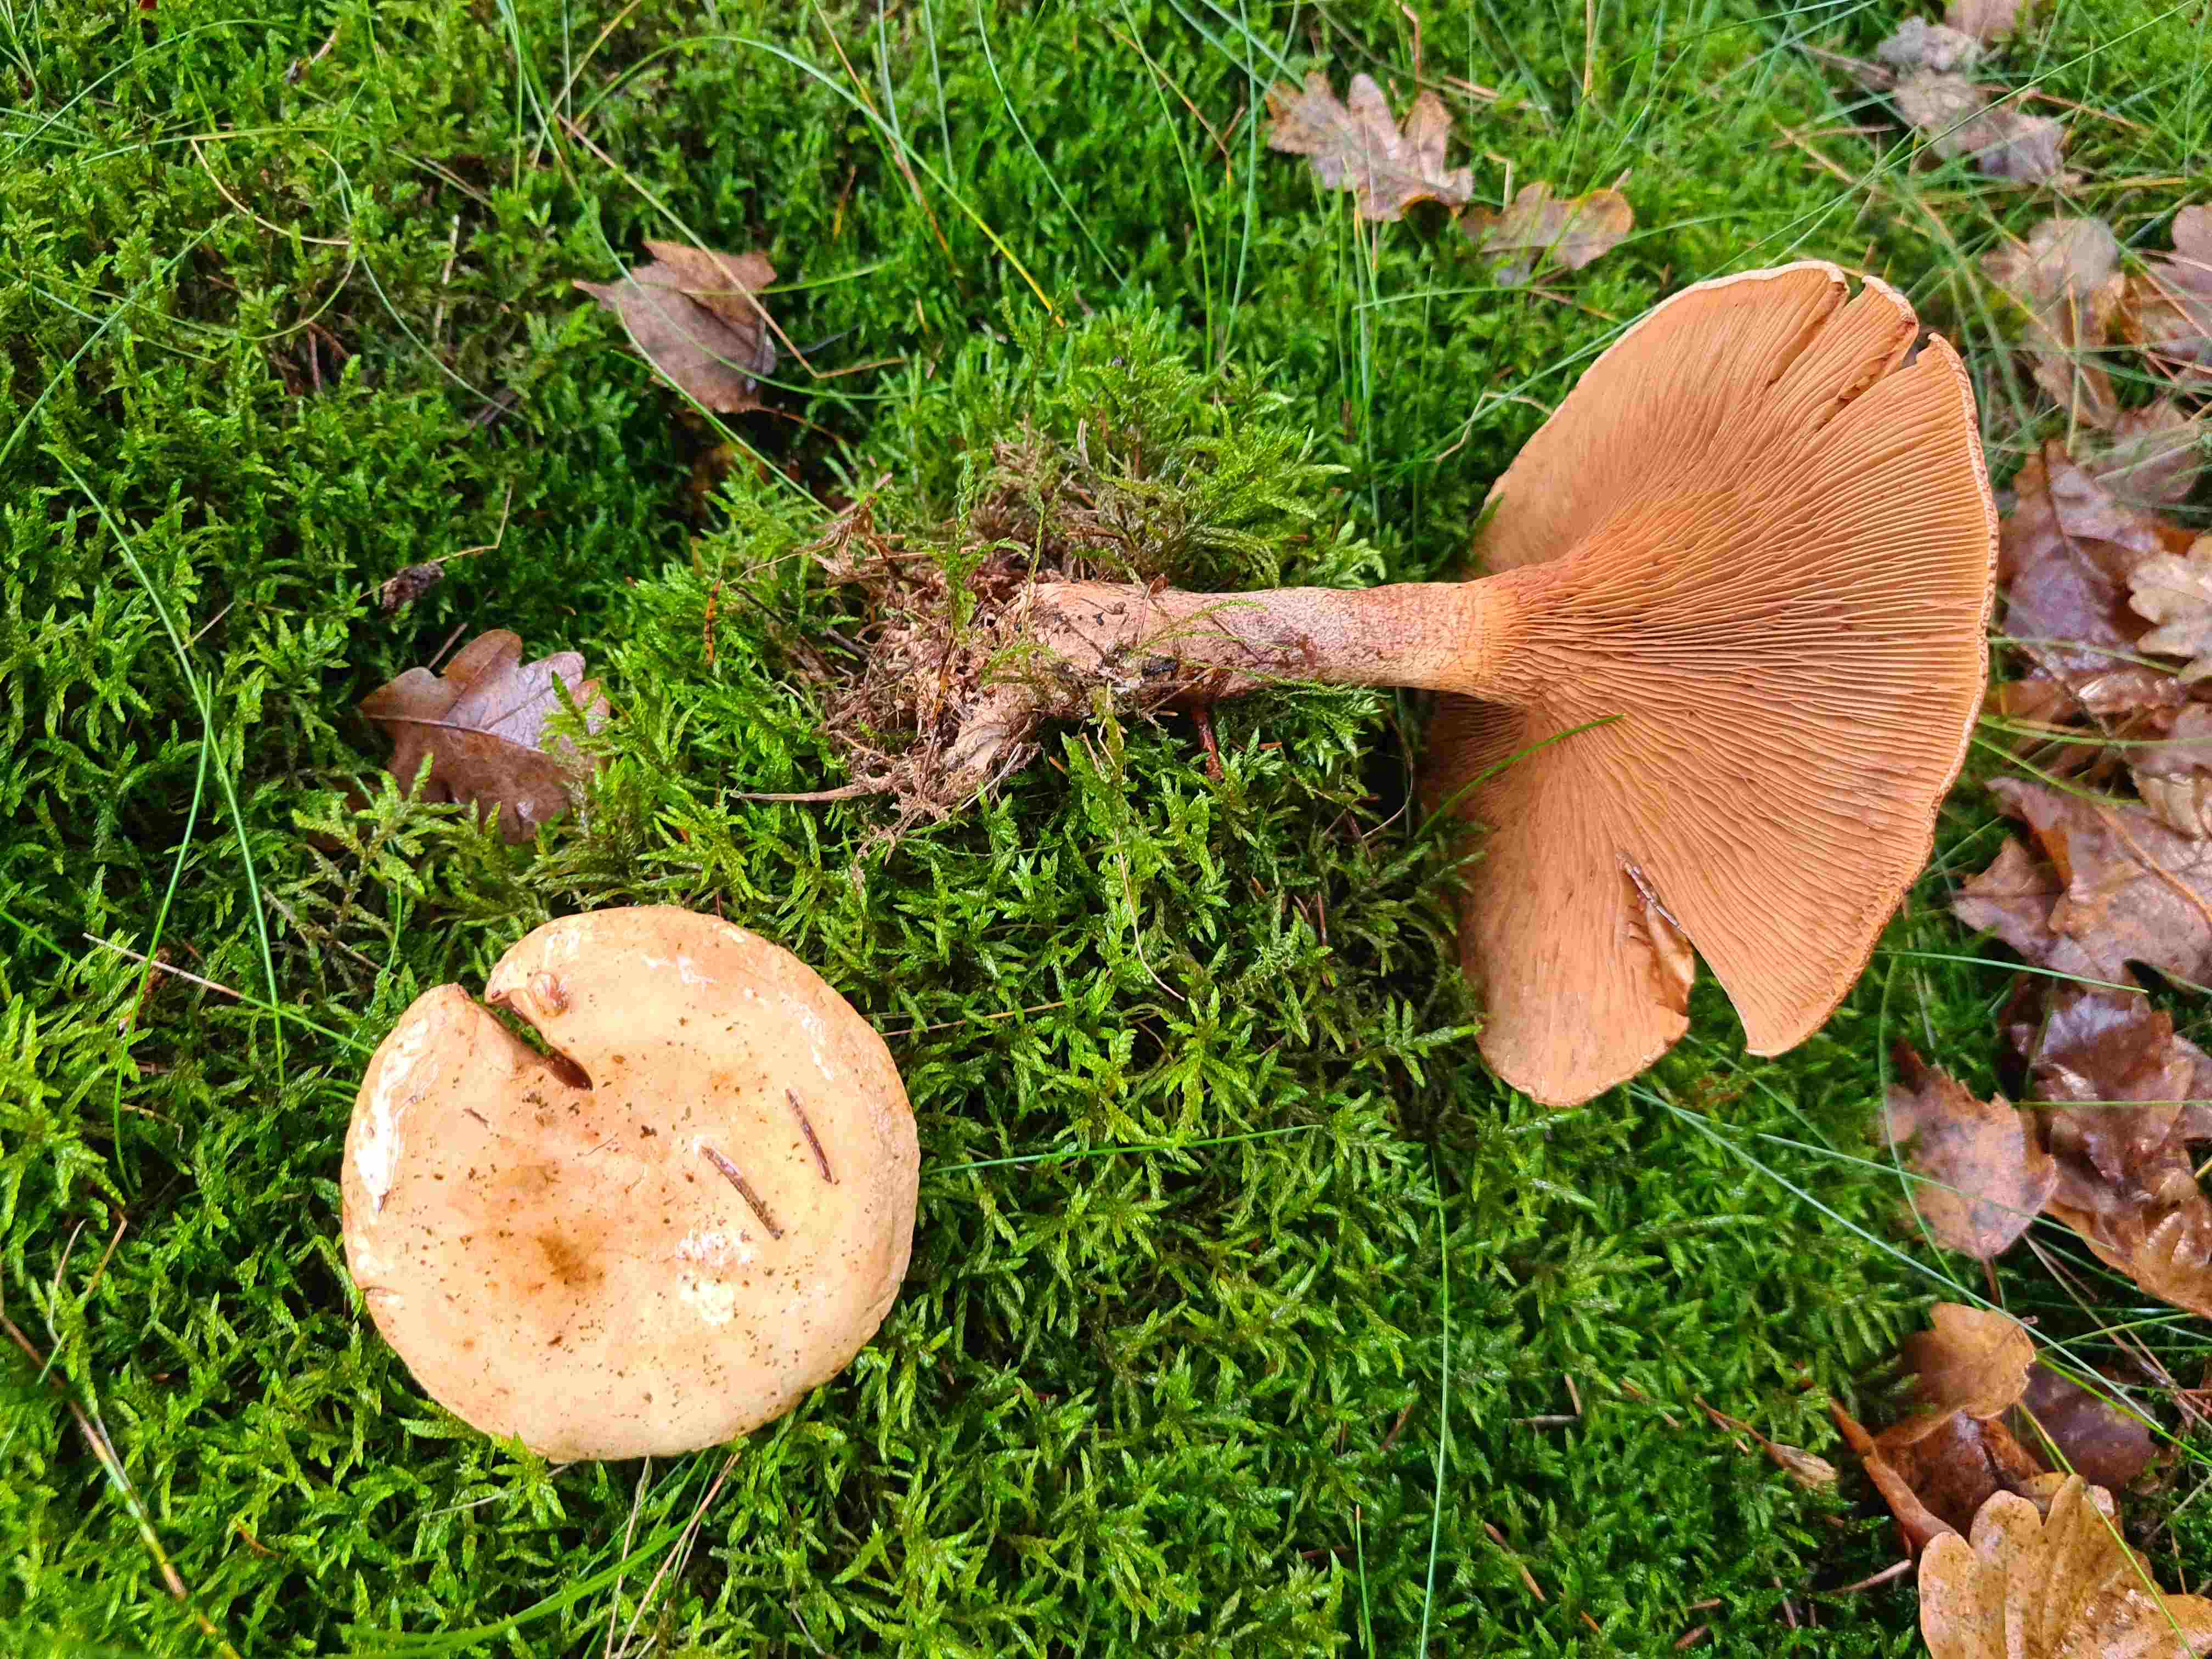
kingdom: Fungi
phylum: Basidiomycota
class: Agaricomycetes
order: Boletales
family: Paxillaceae
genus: Paxillus
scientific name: Paxillus involutus
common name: almindelig netbladhat
